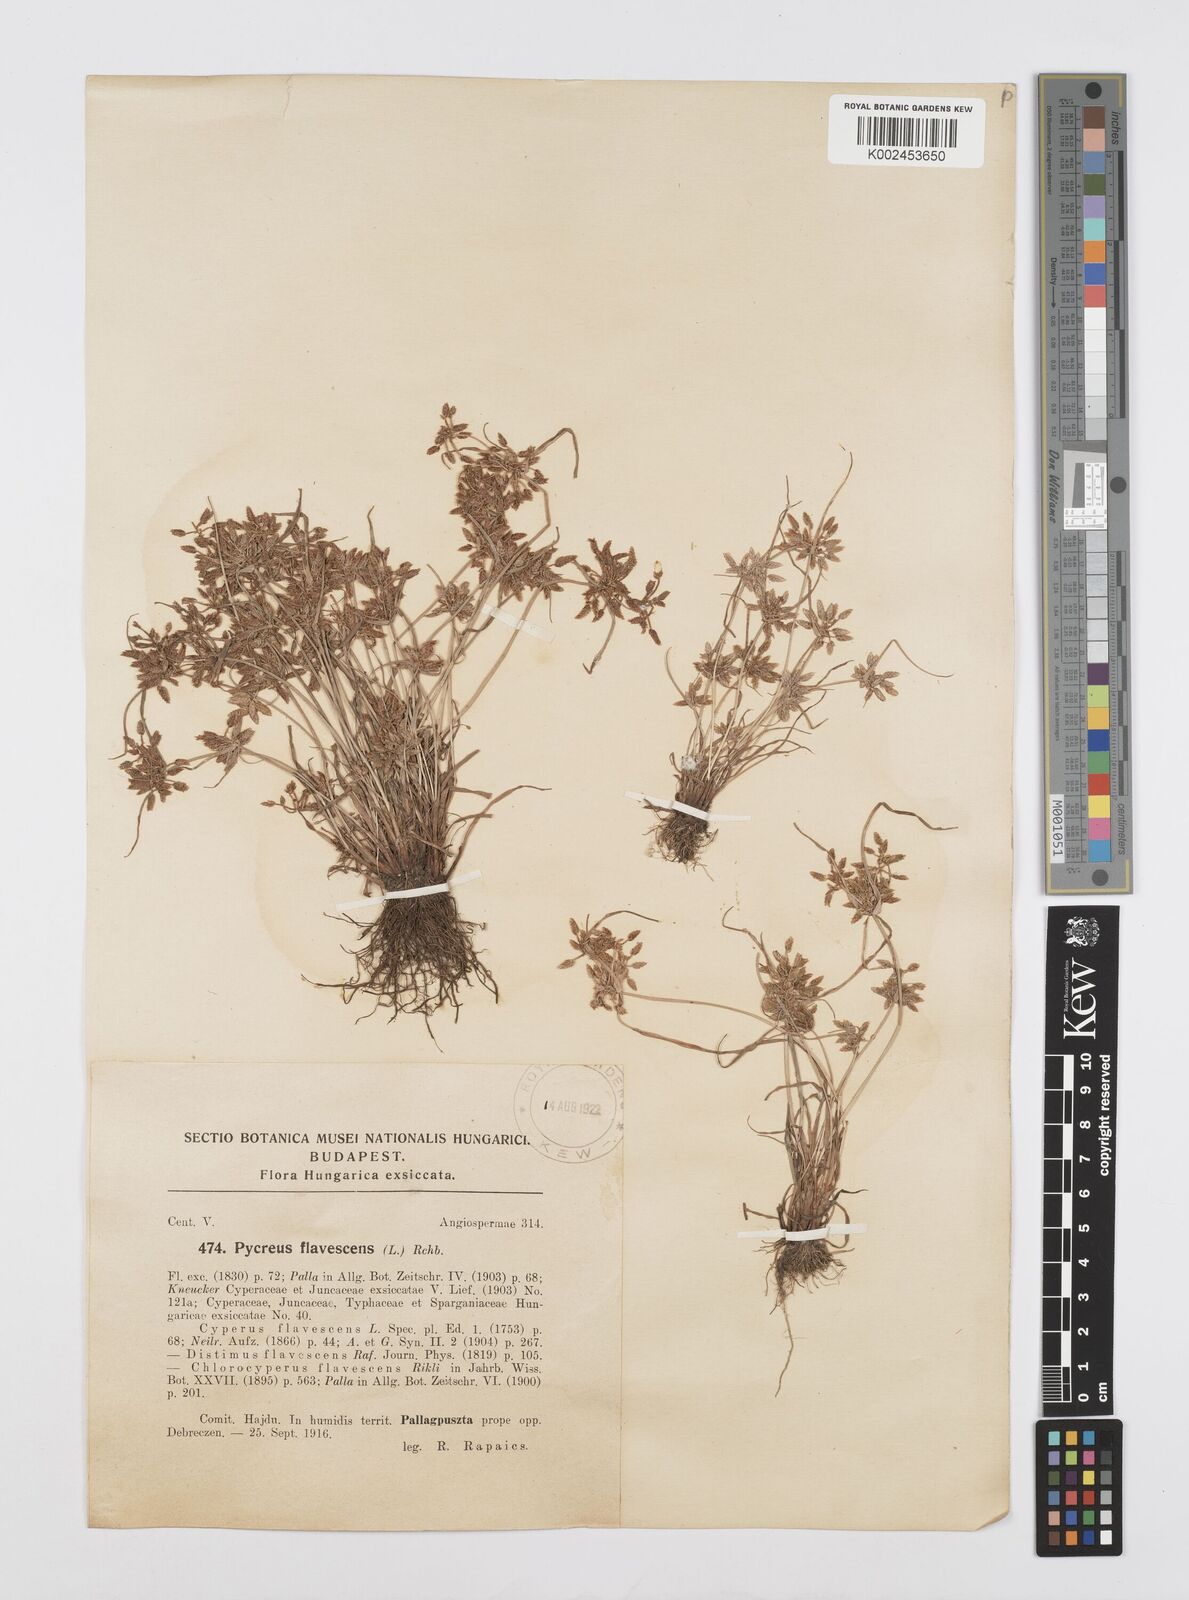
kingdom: Plantae
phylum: Tracheophyta
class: Liliopsida
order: Poales
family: Cyperaceae
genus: Cyperus
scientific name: Cyperus flavescens
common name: Yellow galingale
